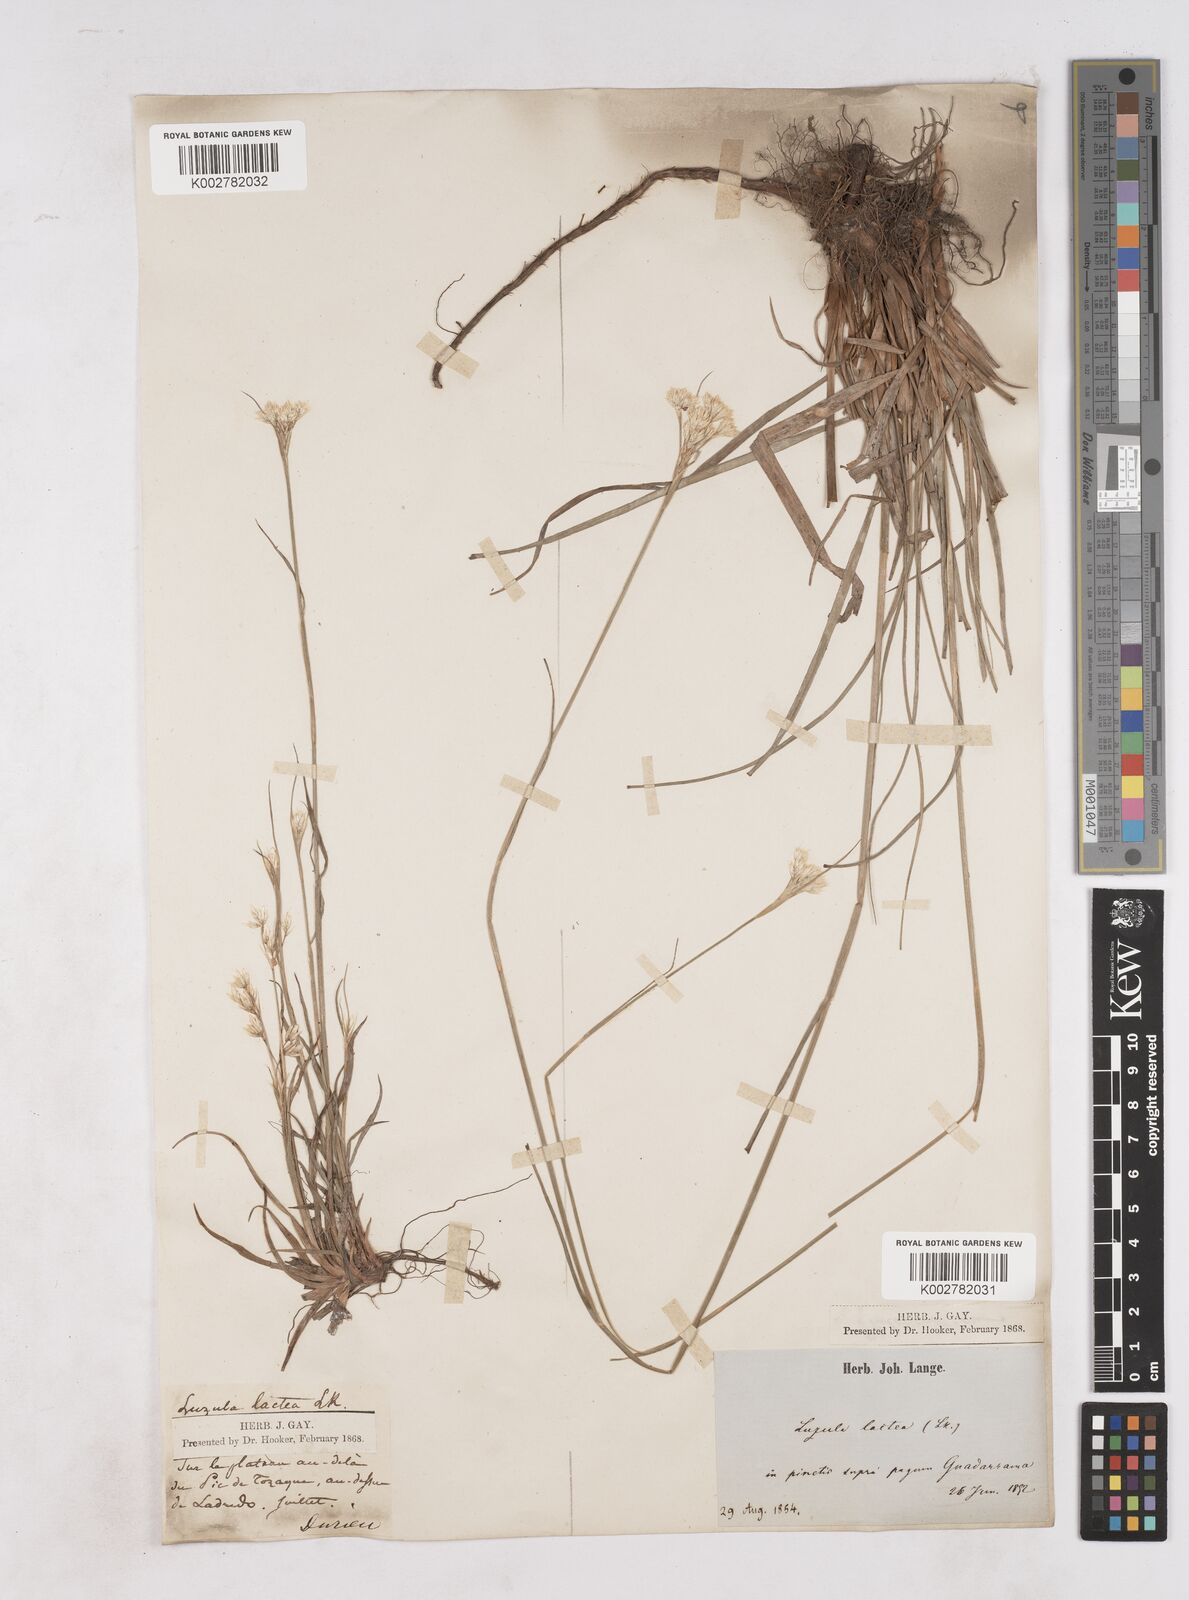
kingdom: Plantae
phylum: Tracheophyta
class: Liliopsida
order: Poales
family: Juncaceae
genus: Luzula
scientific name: Luzula lactea
